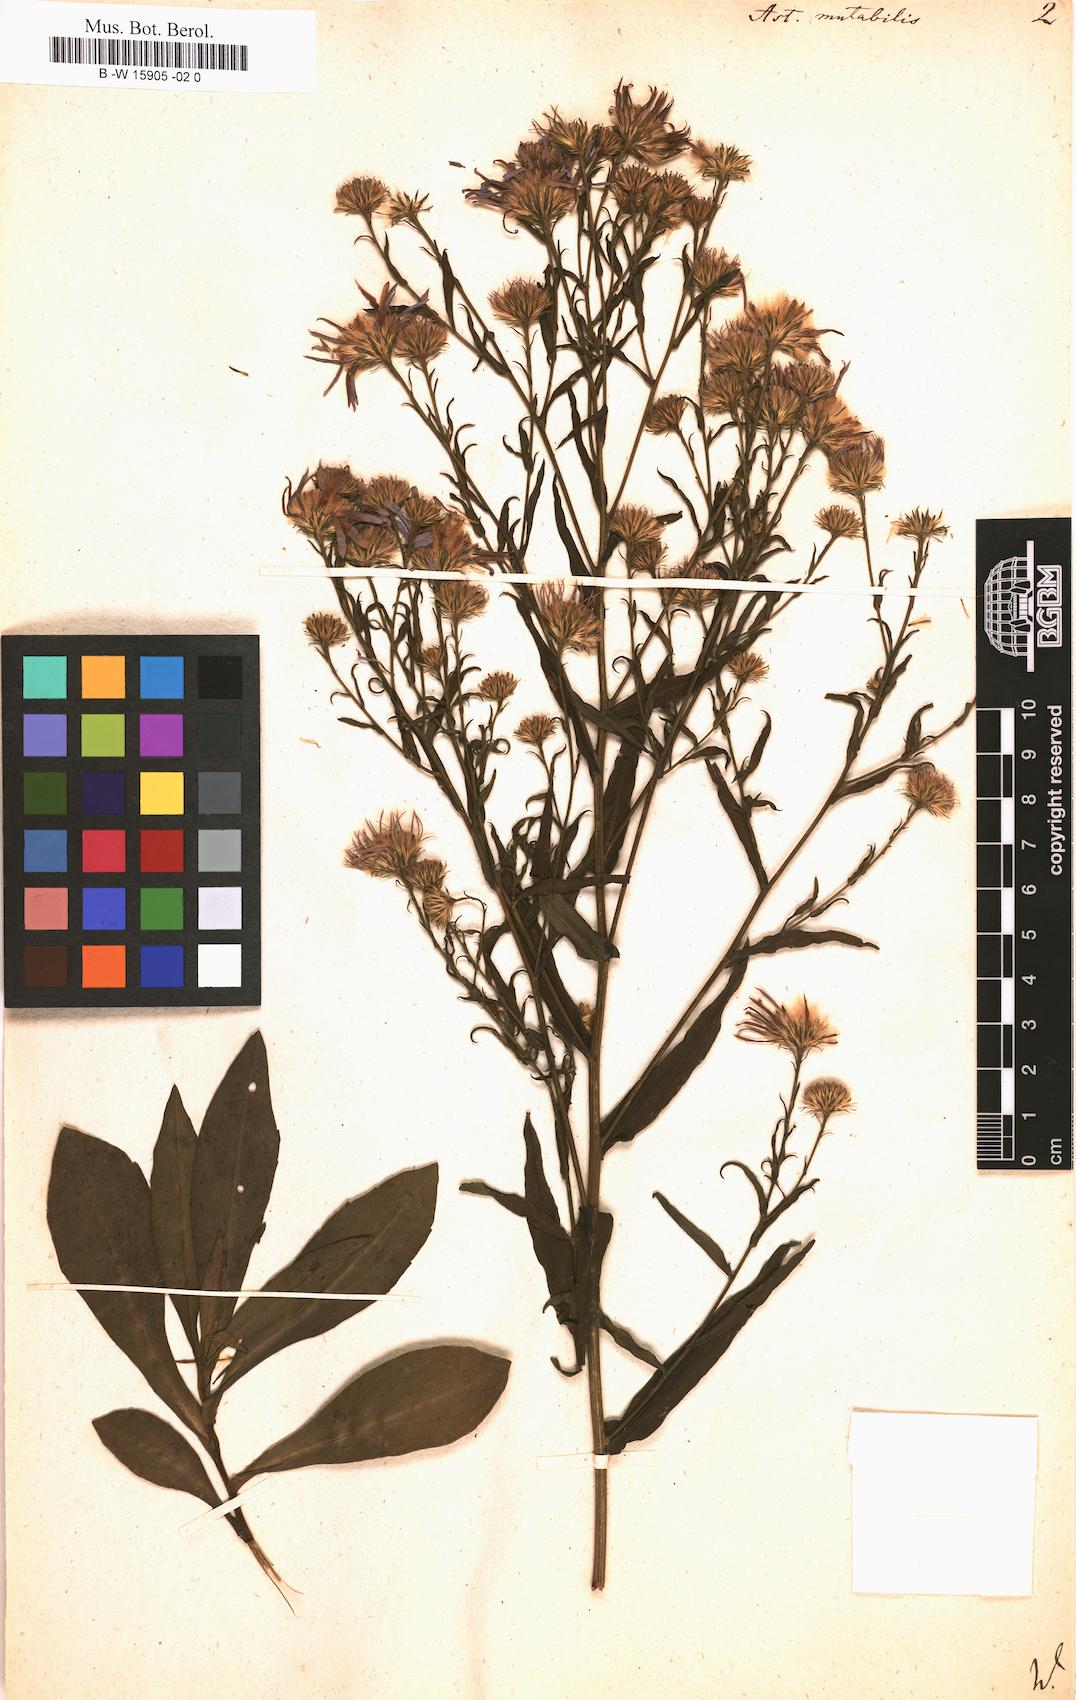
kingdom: Plantae
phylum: Tracheophyta
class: Magnoliopsida
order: Asterales
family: Asteraceae
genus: Aster
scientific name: Aster mutabilis
